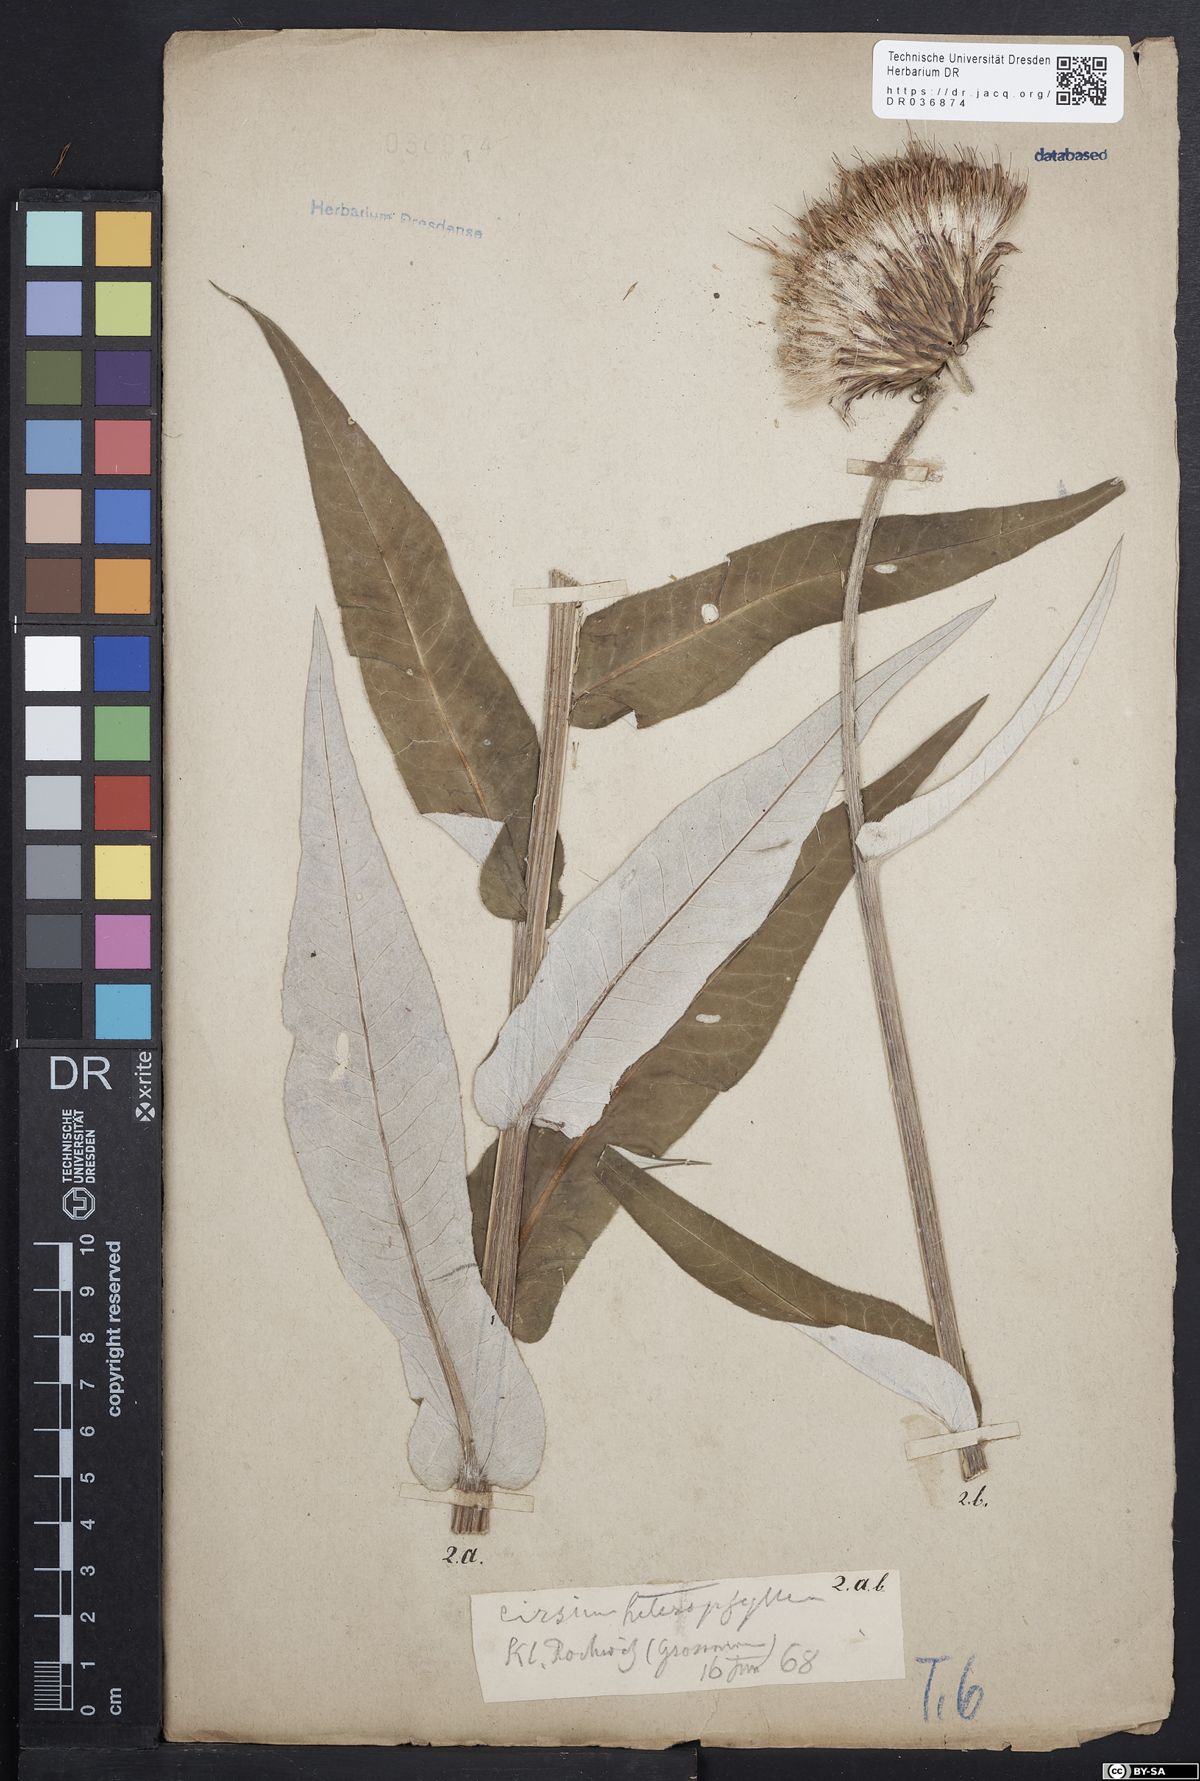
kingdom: Plantae
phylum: Tracheophyta
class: Magnoliopsida
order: Asterales
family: Asteraceae
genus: Cirsium
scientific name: Cirsium helenioides
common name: Melancholy thistle
